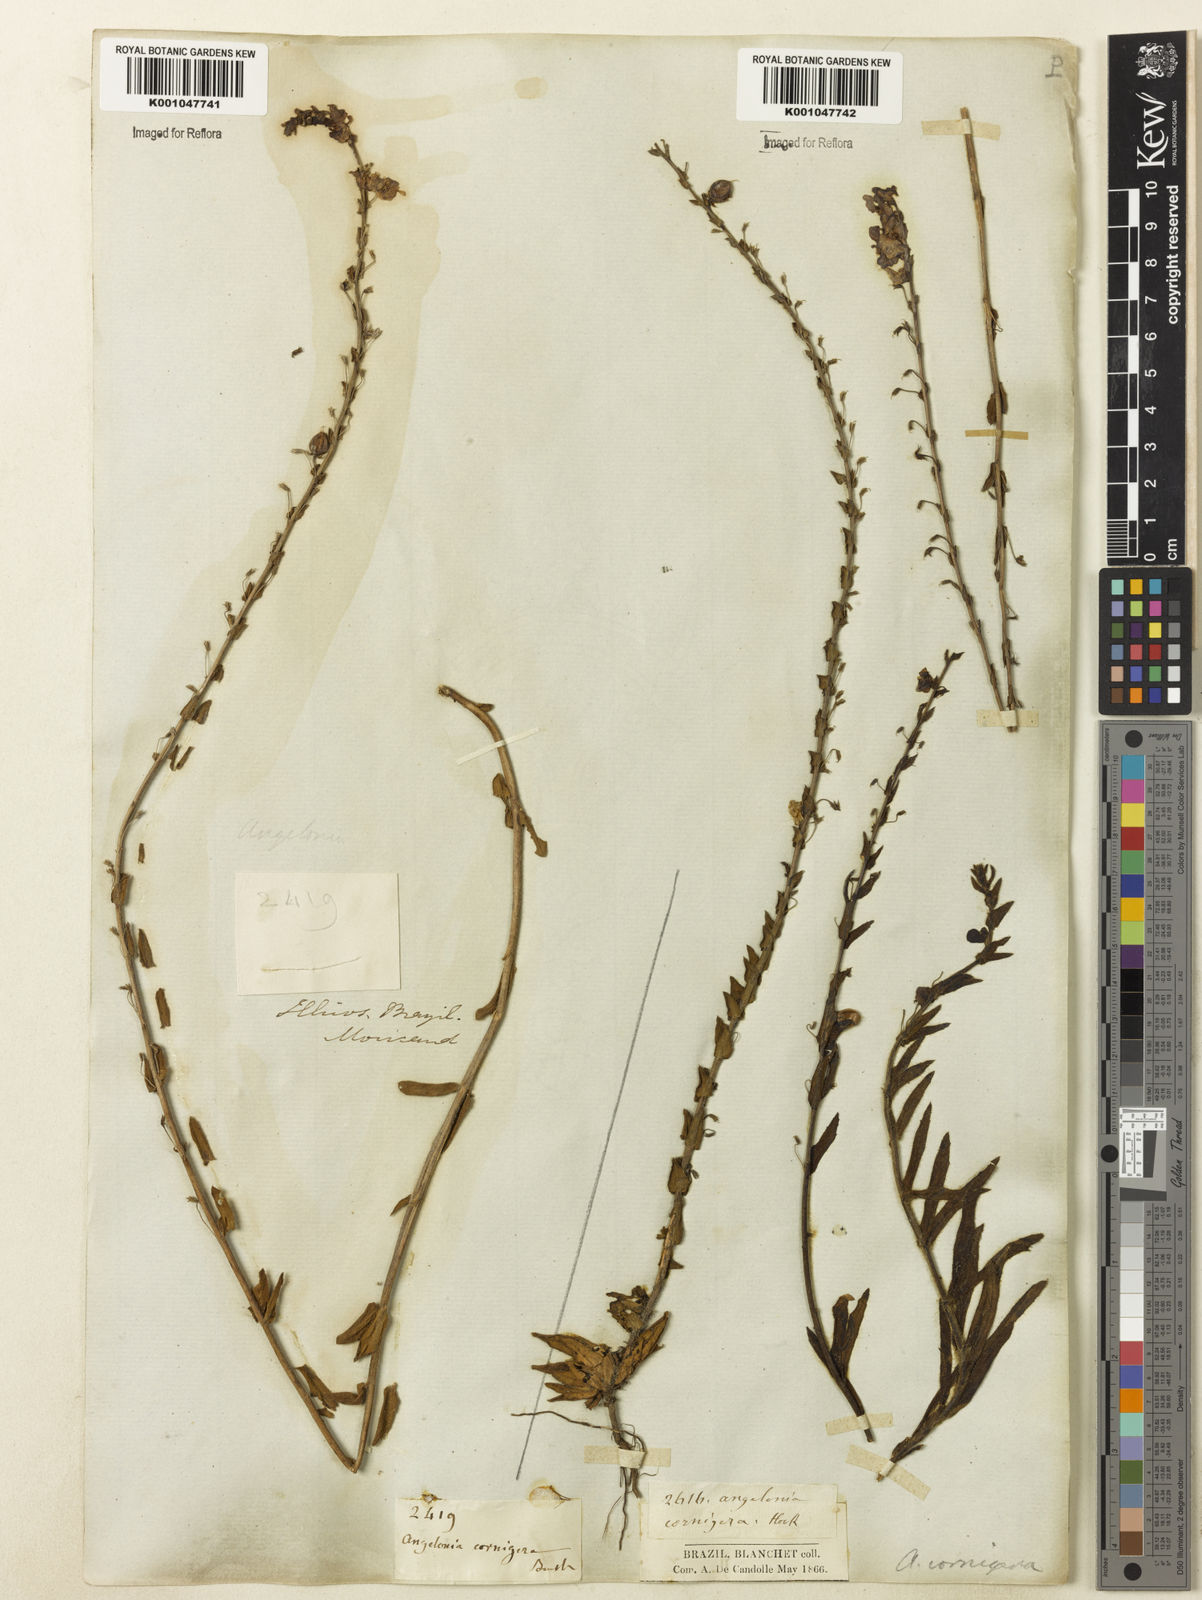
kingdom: Plantae
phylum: Tracheophyta
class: Magnoliopsida
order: Lamiales
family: Plantaginaceae
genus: Angelonia
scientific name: Angelonia cornigera
